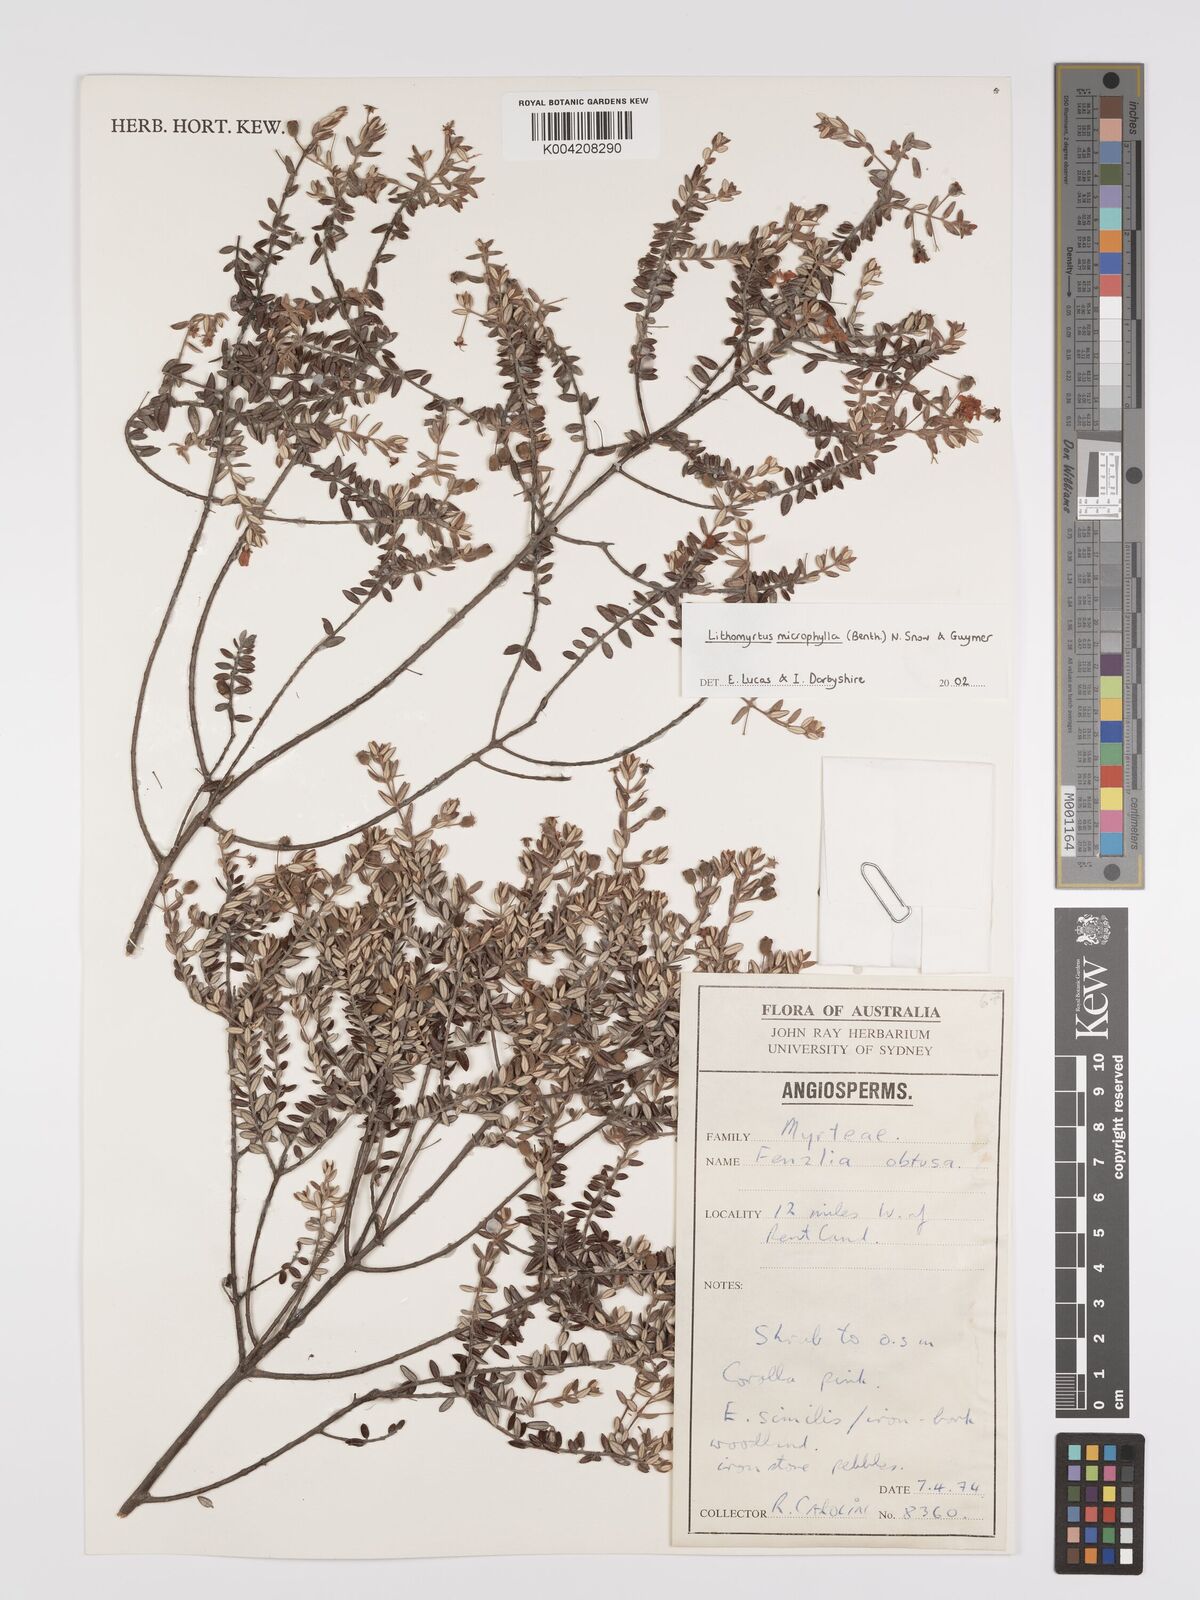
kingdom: Plantae
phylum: Tracheophyta
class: Magnoliopsida
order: Myrtales
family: Myrtaceae
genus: Lithomyrtus
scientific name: Lithomyrtus microphylla
